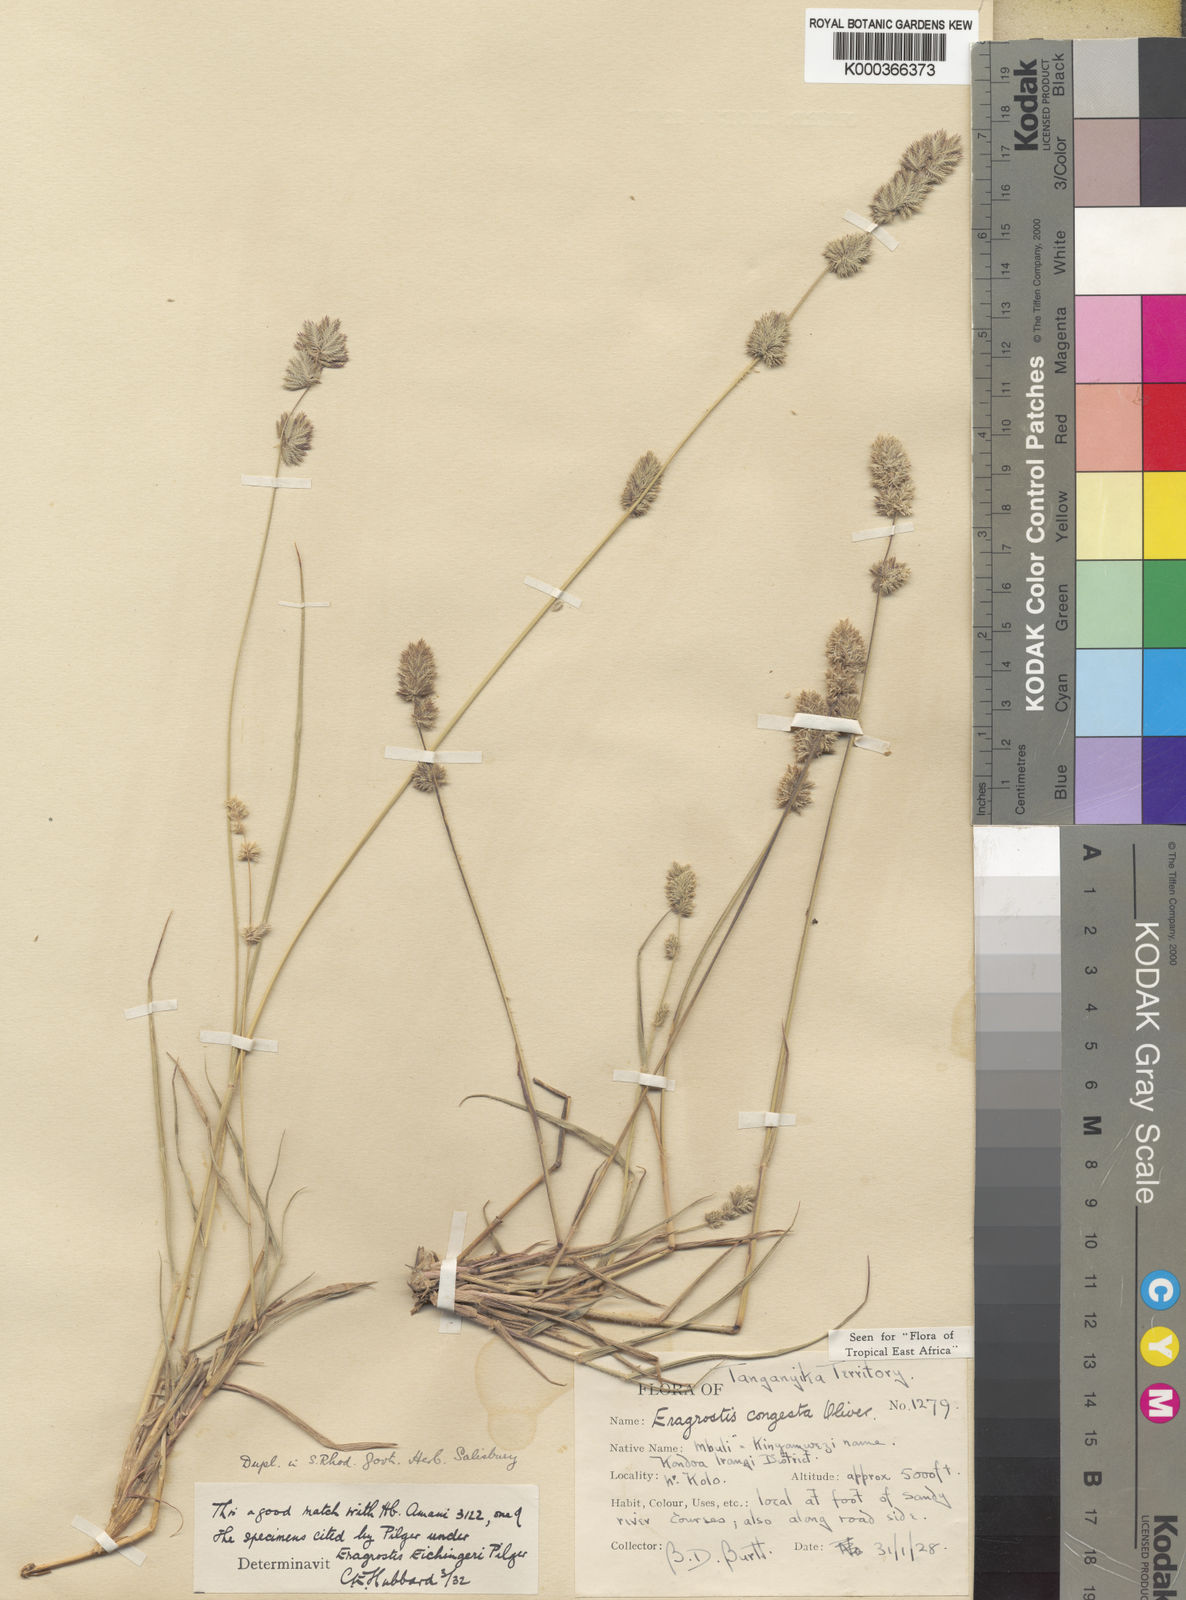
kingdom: Plantae
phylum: Tracheophyta
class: Liliopsida
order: Poales
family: Poaceae
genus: Eragrostis
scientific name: Eragrostis congesta
